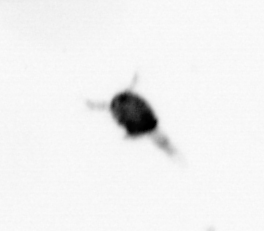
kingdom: Animalia
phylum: Arthropoda
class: Copepoda
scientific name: Copepoda
